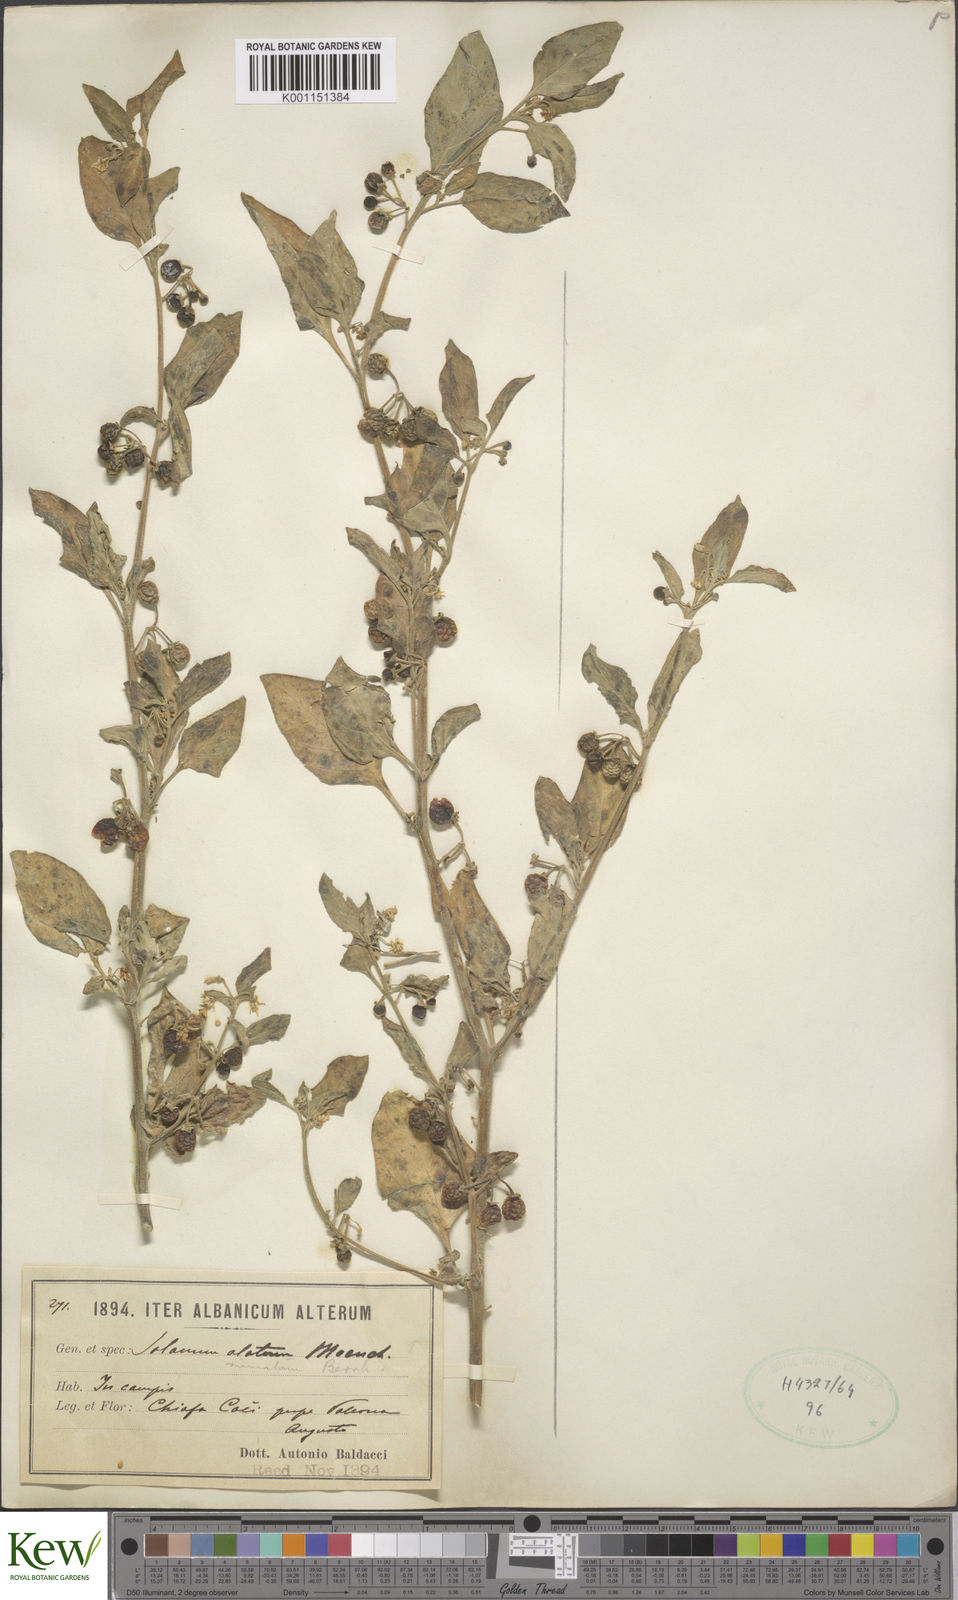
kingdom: Plantae
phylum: Tracheophyta
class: Magnoliopsida
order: Solanales
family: Solanaceae
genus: Solanum
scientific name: Solanum alatum
